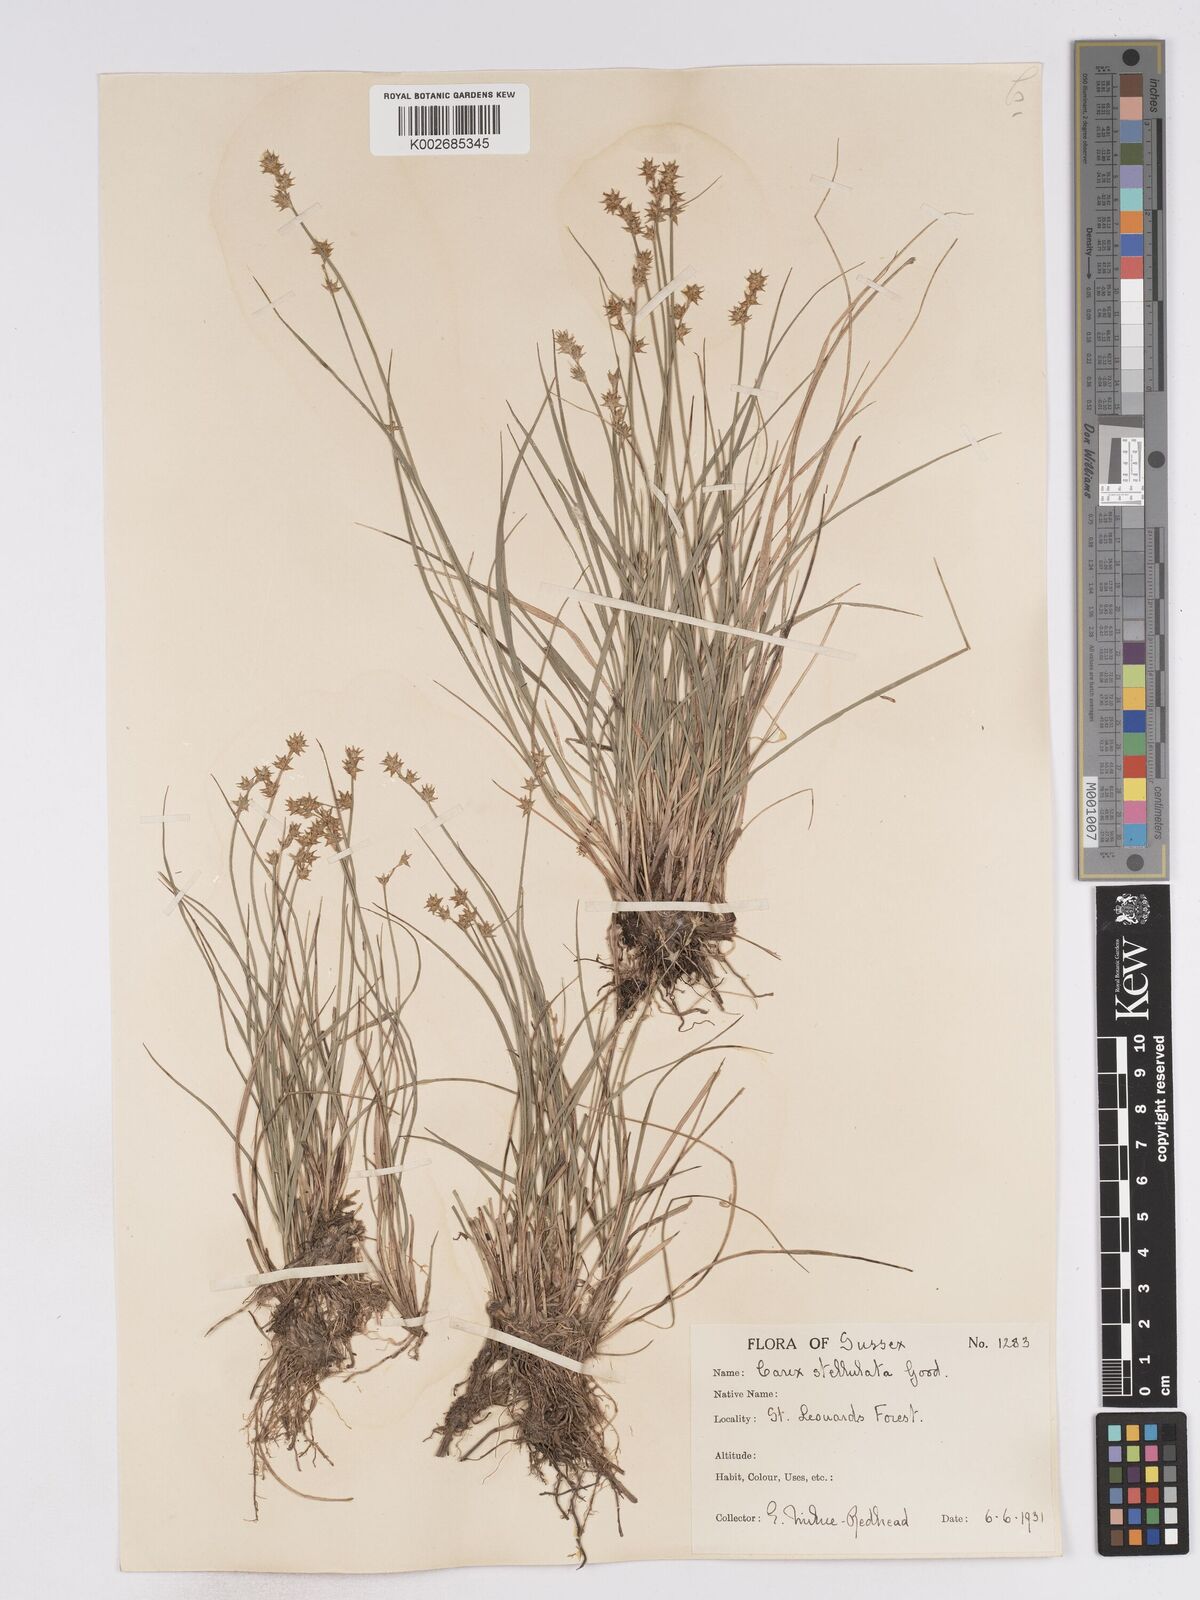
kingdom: Plantae
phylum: Tracheophyta
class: Liliopsida
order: Poales
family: Cyperaceae
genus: Carex
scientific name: Carex echinata
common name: Star sedge
